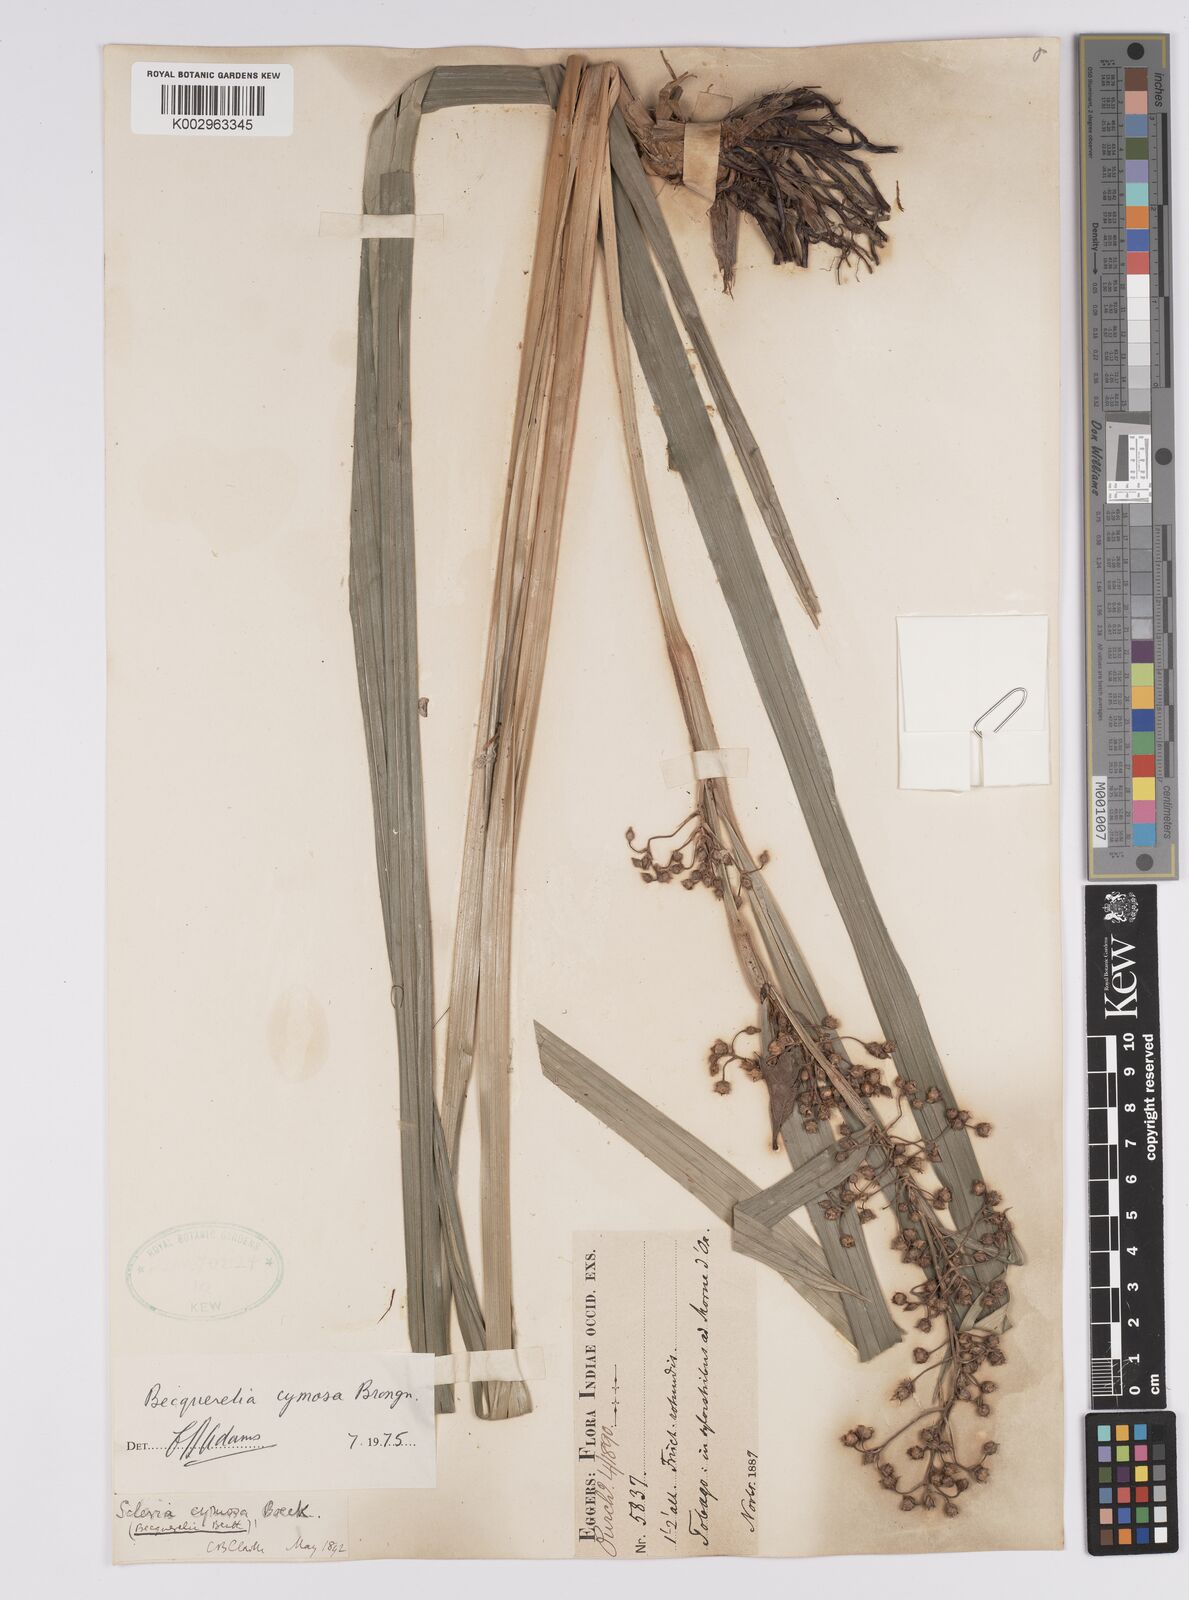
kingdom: Plantae
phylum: Tracheophyta
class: Liliopsida
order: Poales
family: Cyperaceae
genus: Becquerelia
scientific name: Becquerelia cymosa
